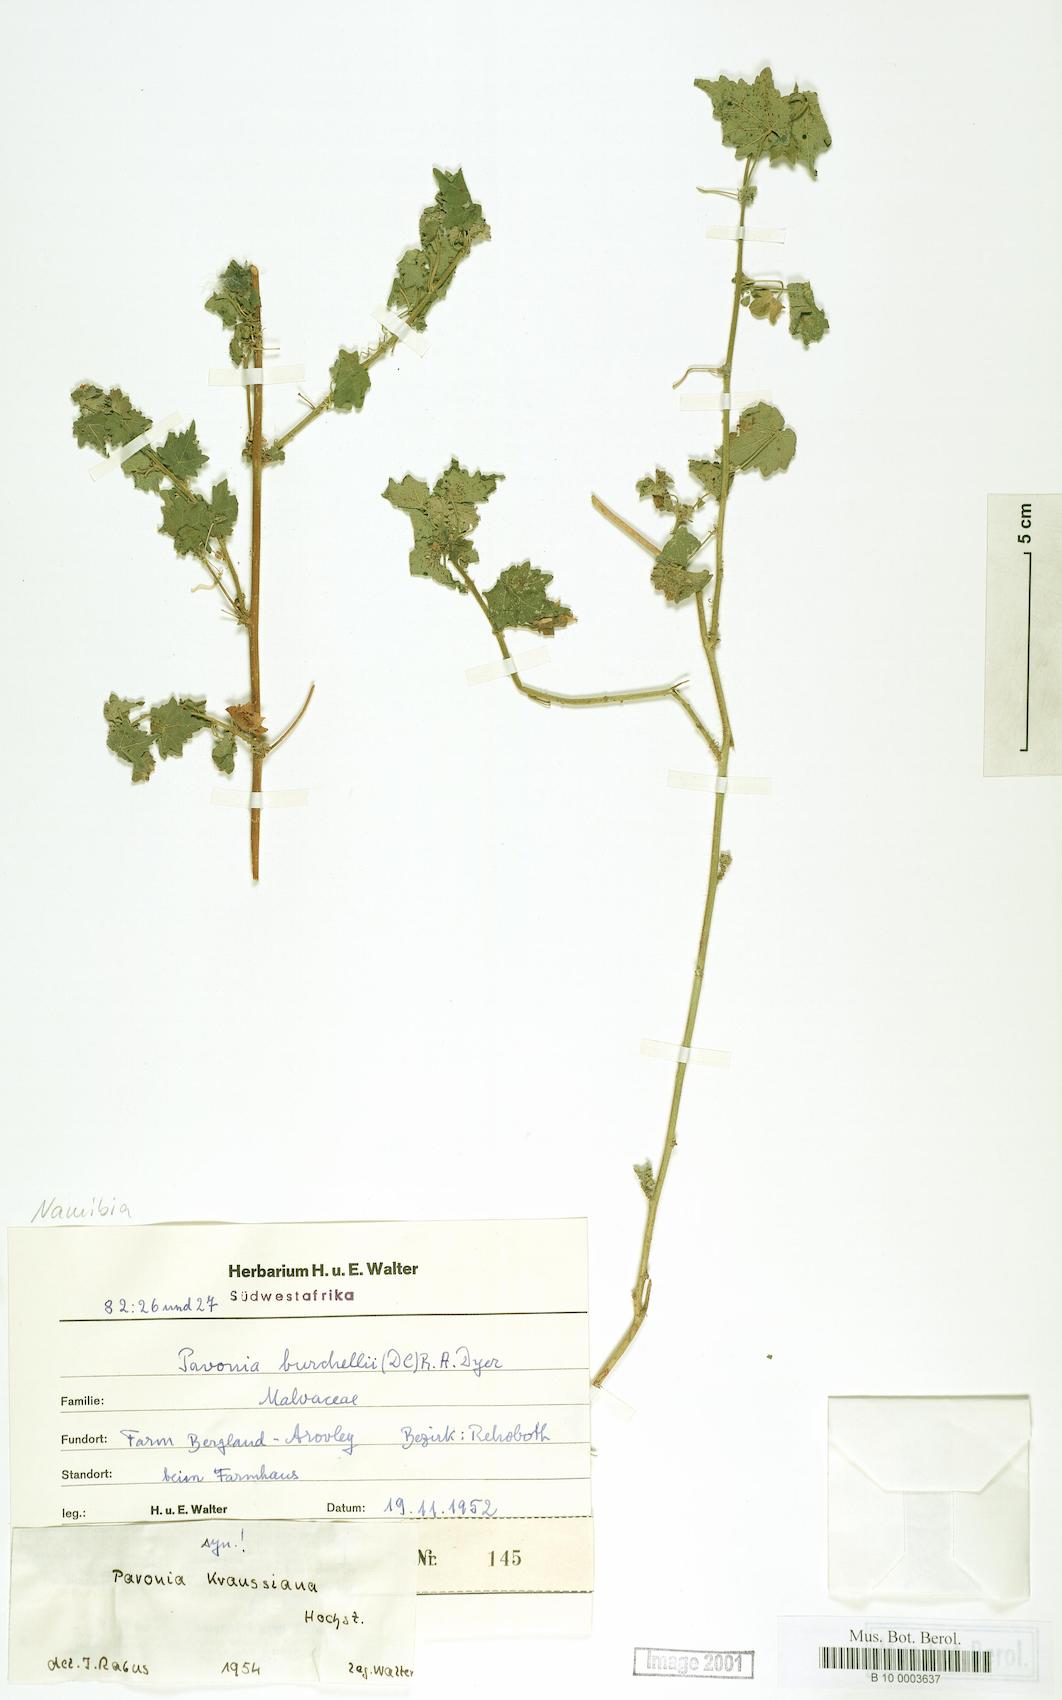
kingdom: Plantae
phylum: Tracheophyta
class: Magnoliopsida
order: Malvales
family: Malvaceae
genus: Pavonia
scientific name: Pavonia burchellii
